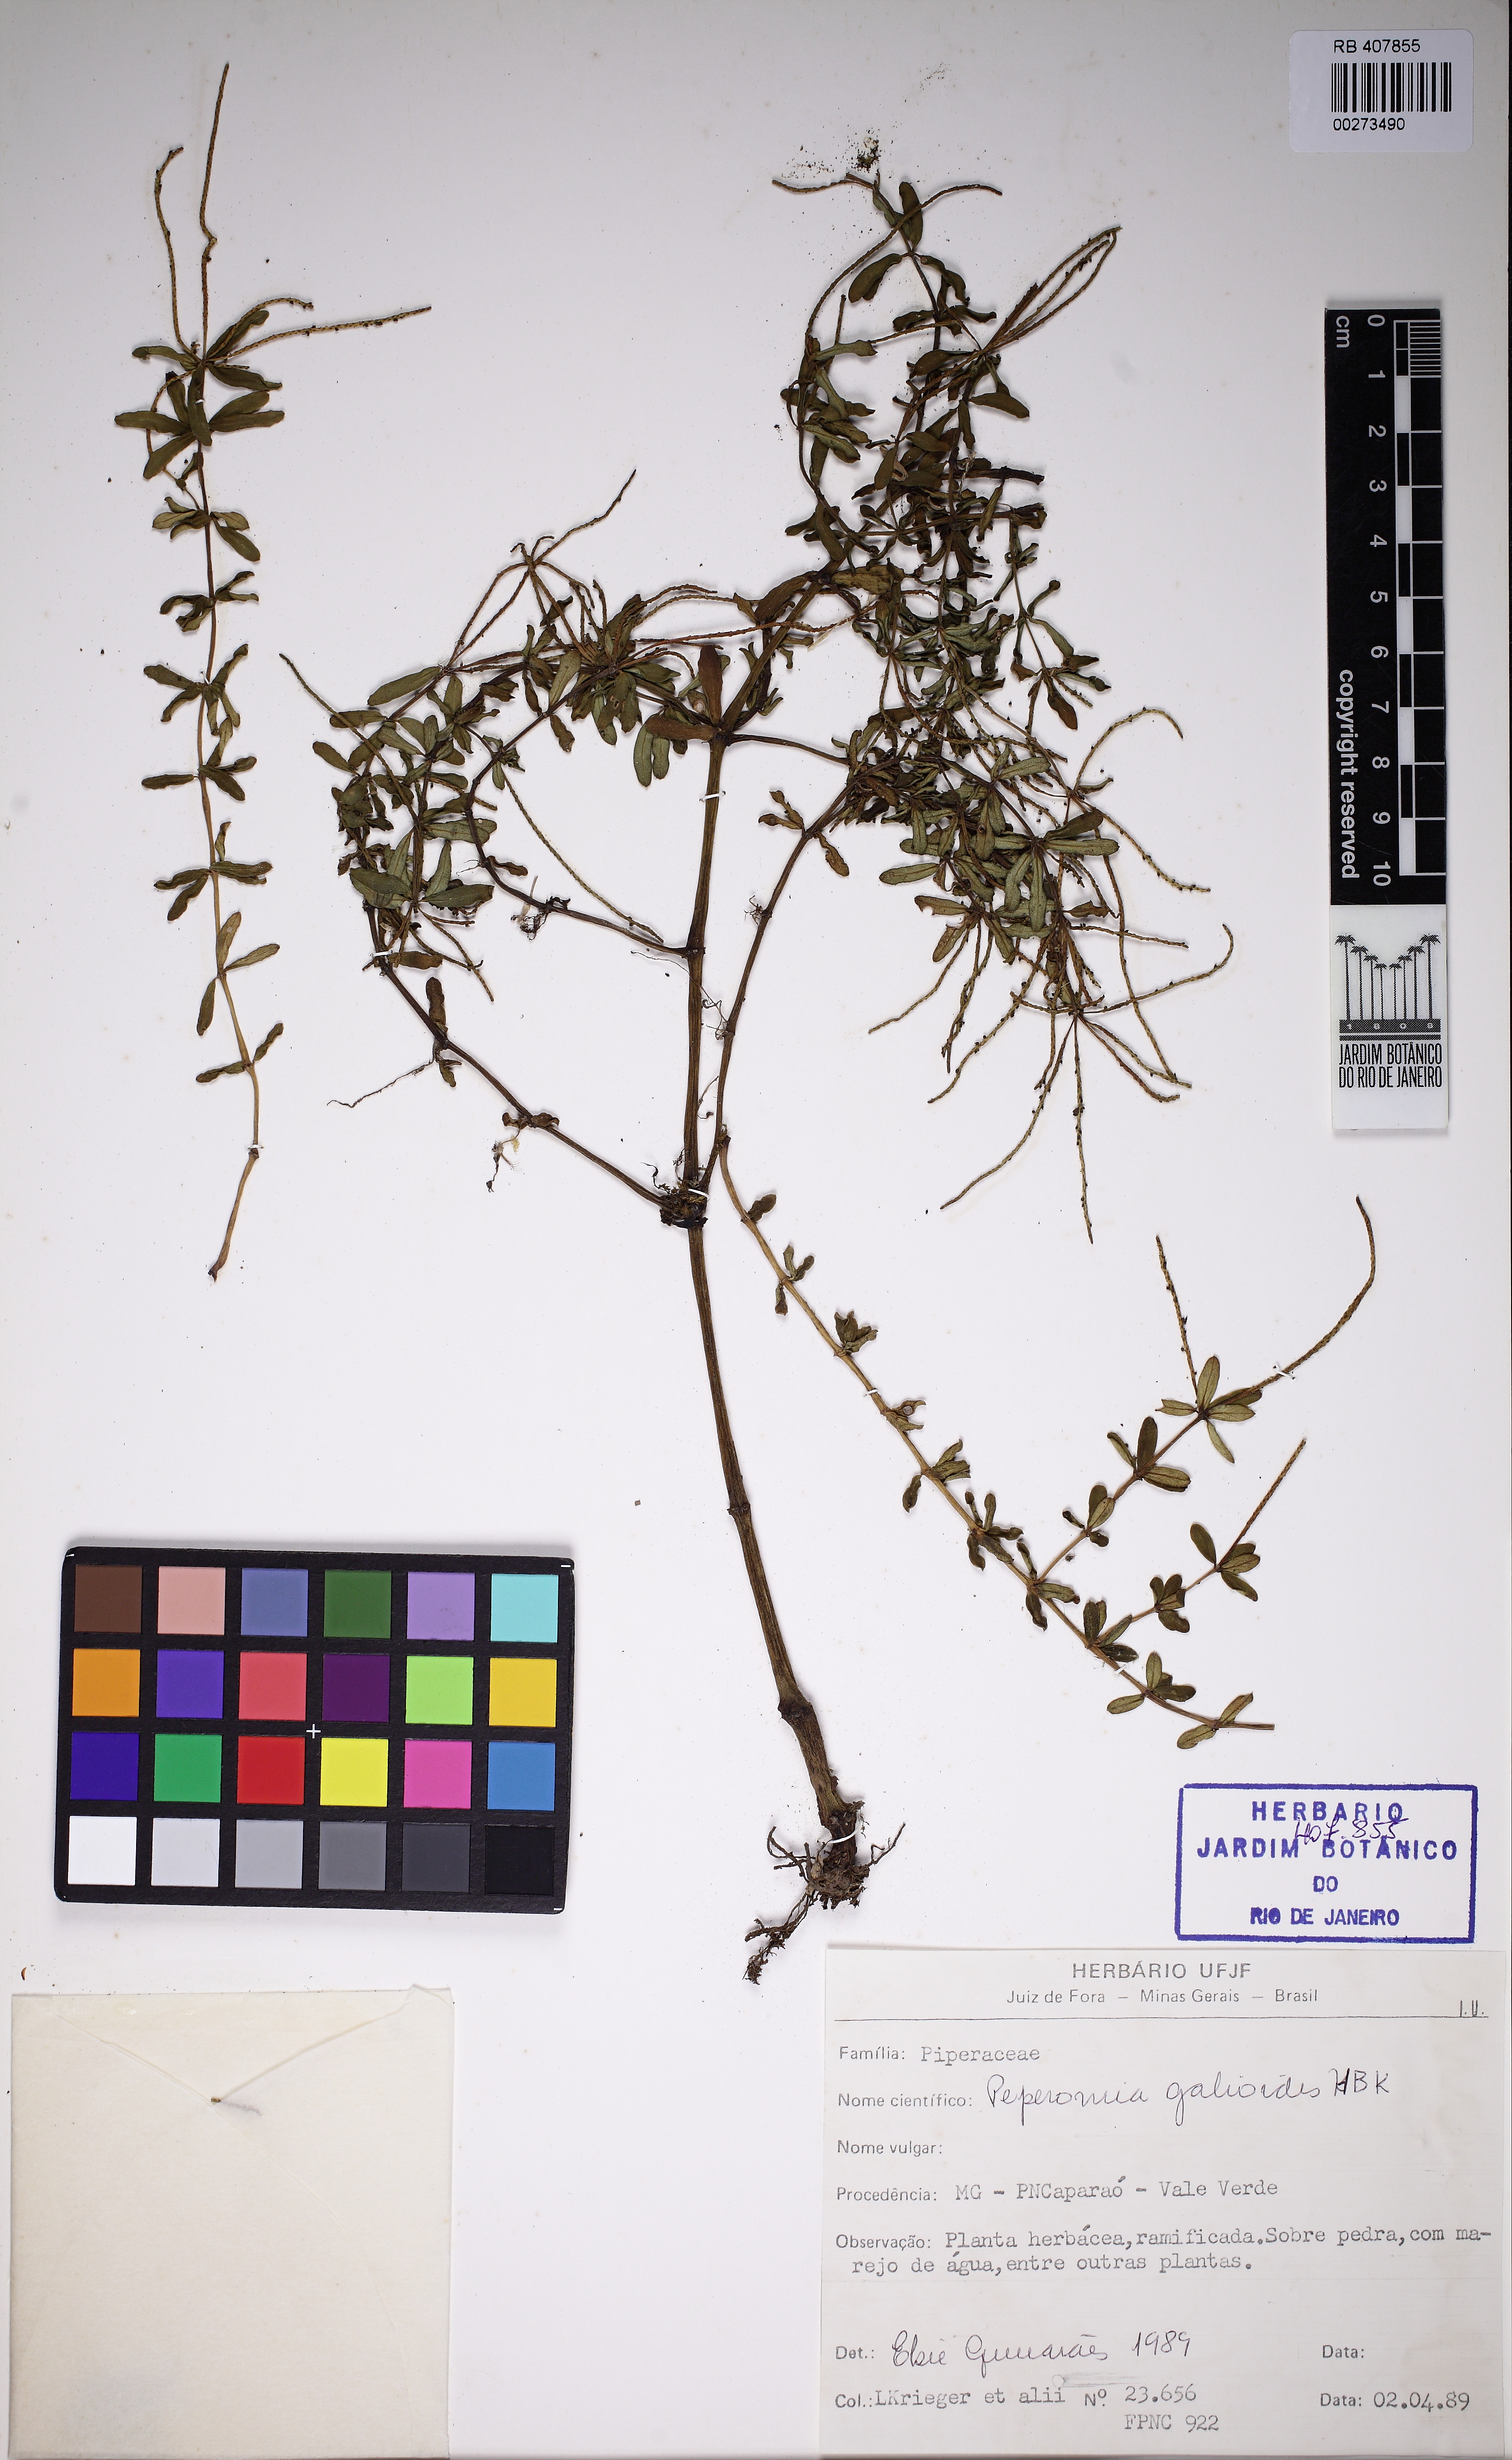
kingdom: Plantae
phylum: Tracheophyta
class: Magnoliopsida
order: Piperales
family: Piperaceae
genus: Peperomia
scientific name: Peperomia galioides
